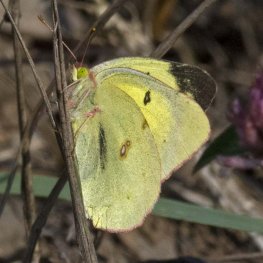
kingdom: Animalia
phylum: Arthropoda
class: Insecta
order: Lepidoptera
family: Pieridae
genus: Colias
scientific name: Colias philodice
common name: Clouded Sulphur
